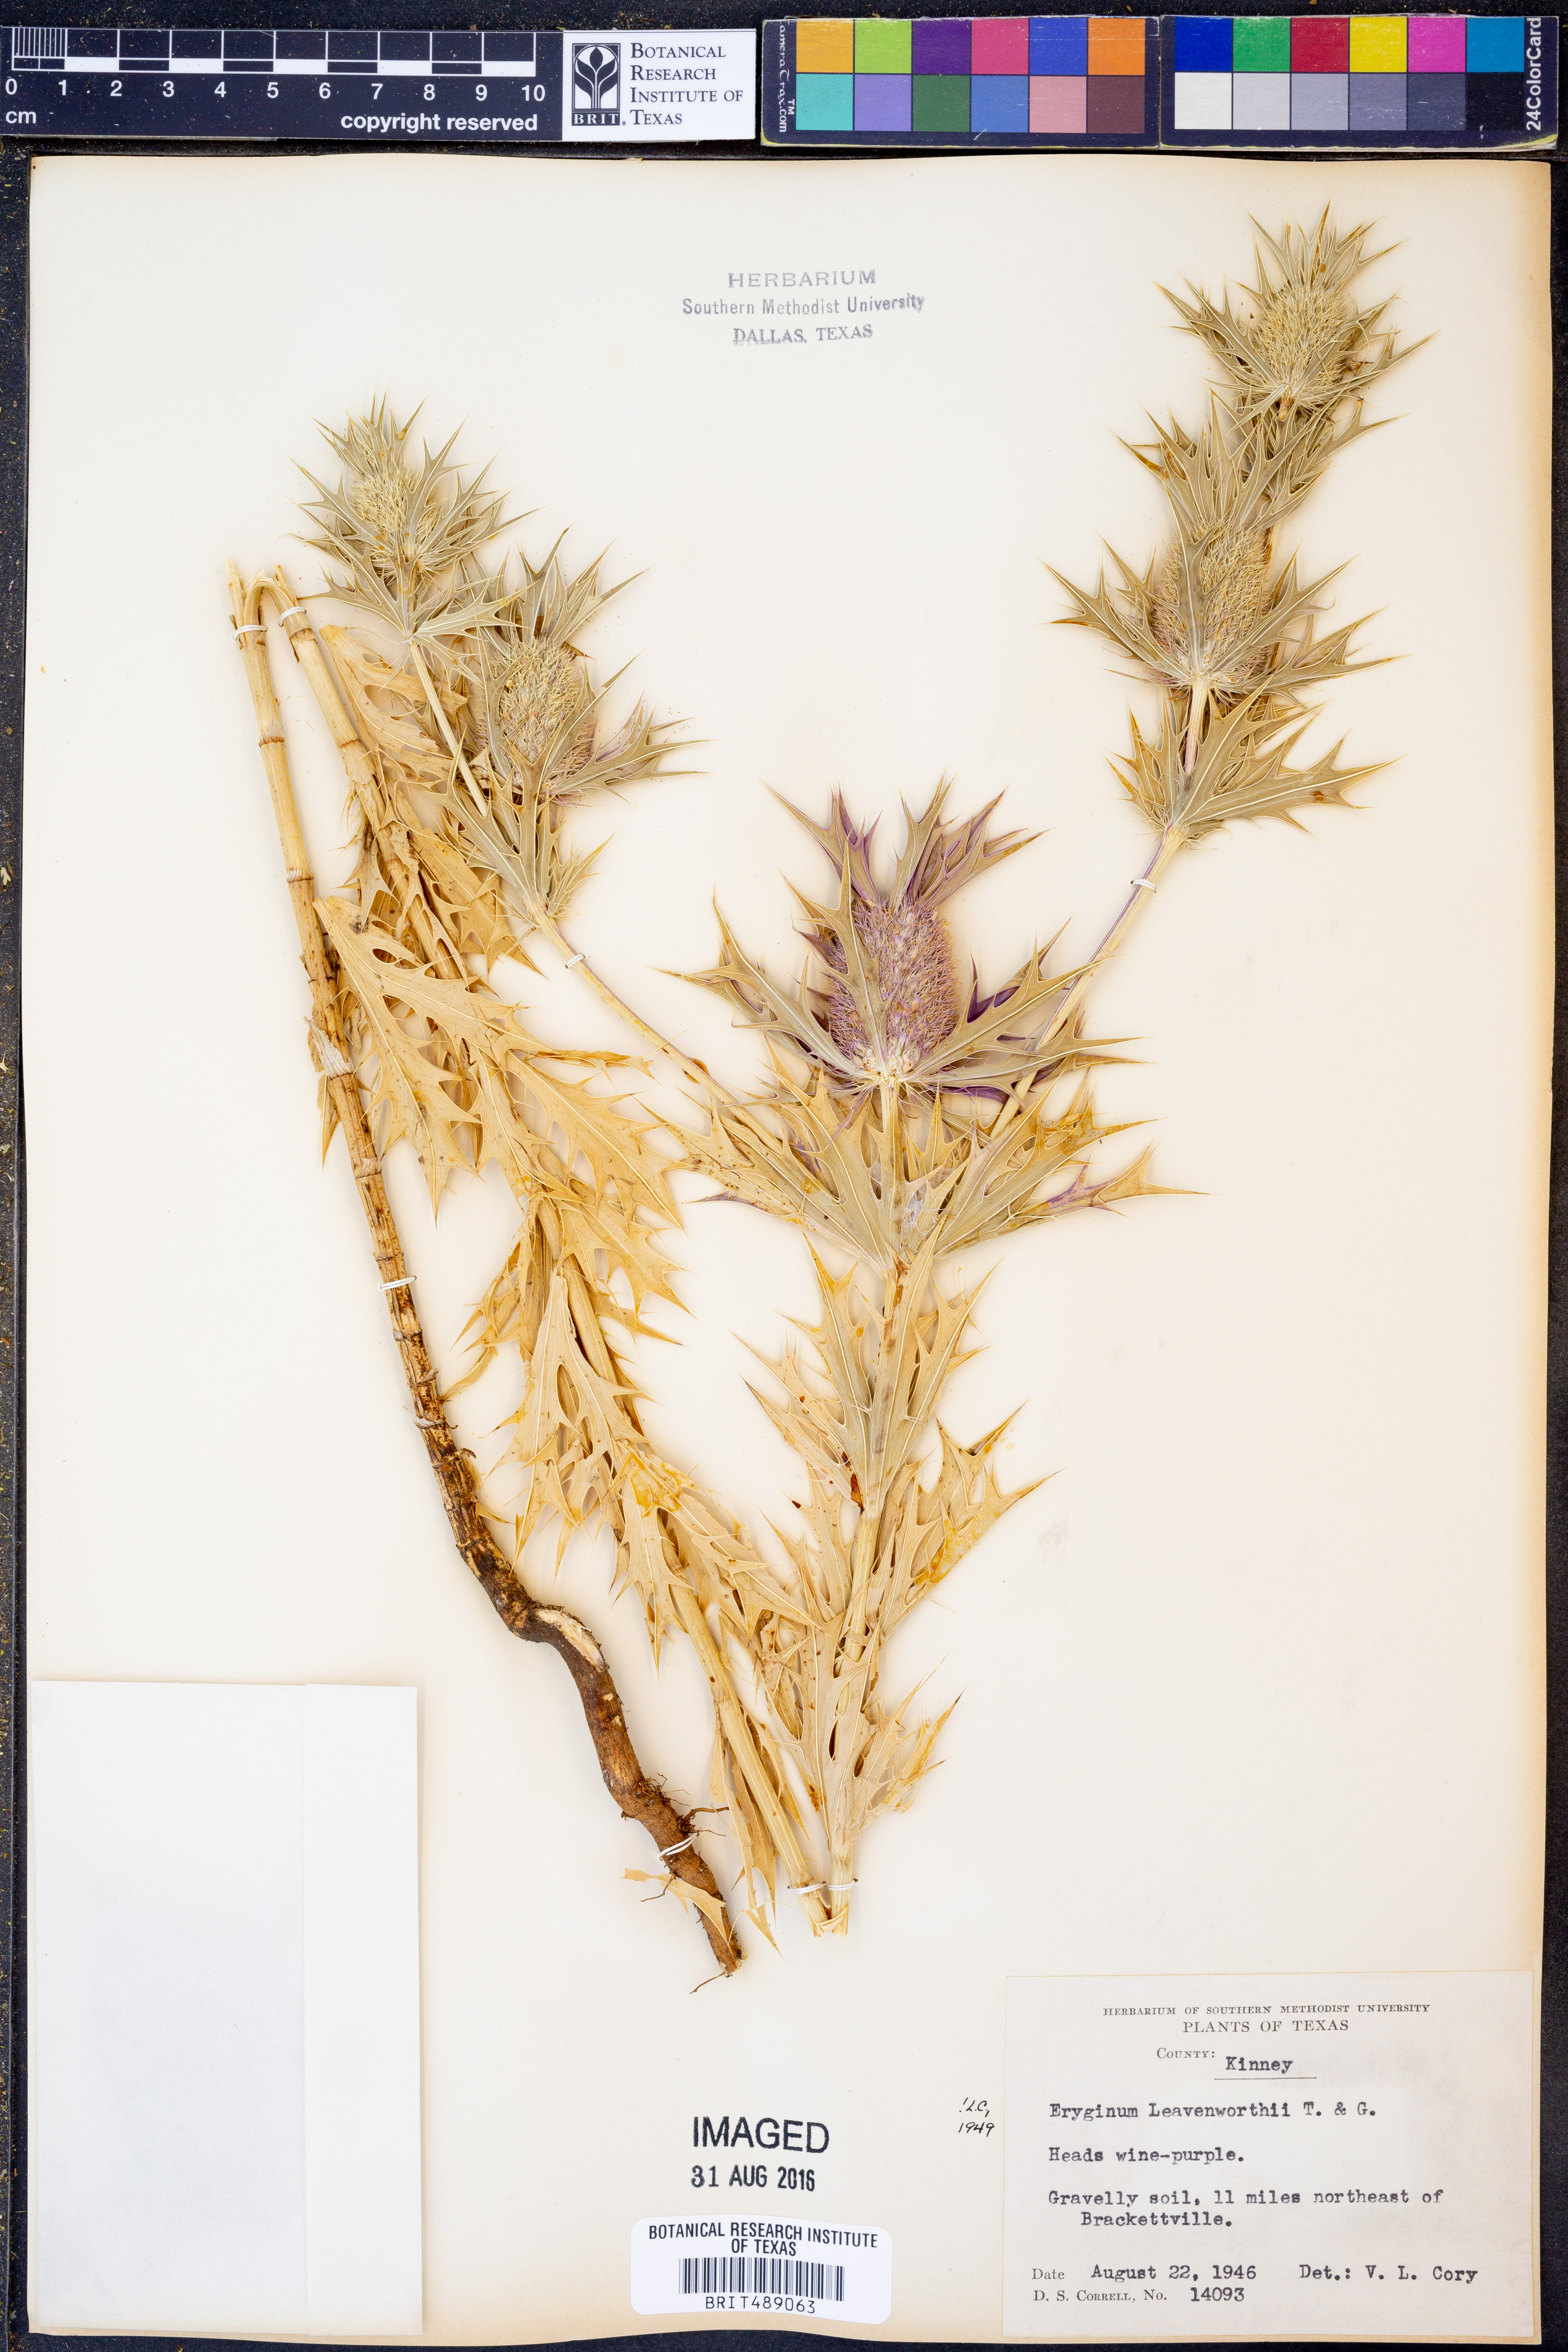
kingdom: Plantae
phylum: Tracheophyta
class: Magnoliopsida
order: Apiales
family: Apiaceae
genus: Eryngium
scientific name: Eryngium leavenworthii
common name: Leavenworth's eryngo
